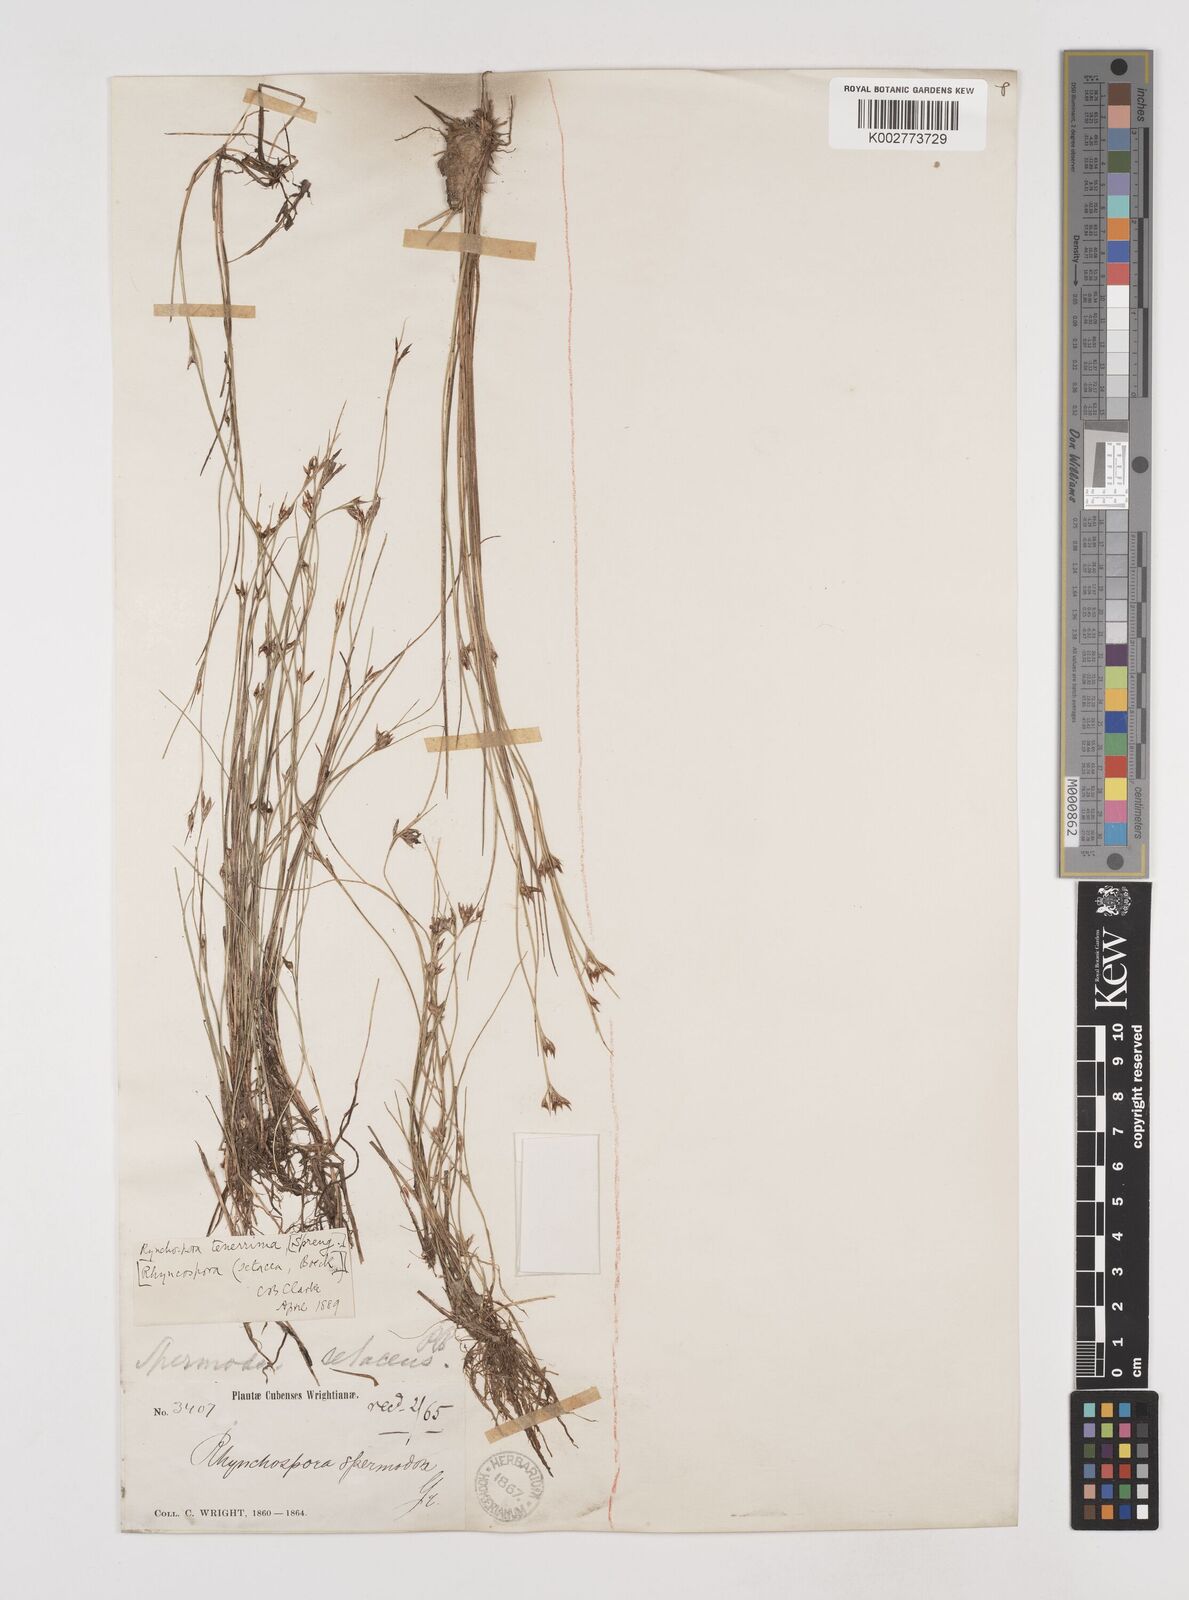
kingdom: Plantae
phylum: Tracheophyta
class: Liliopsida
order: Poales
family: Cyperaceae
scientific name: Cyperaceae
